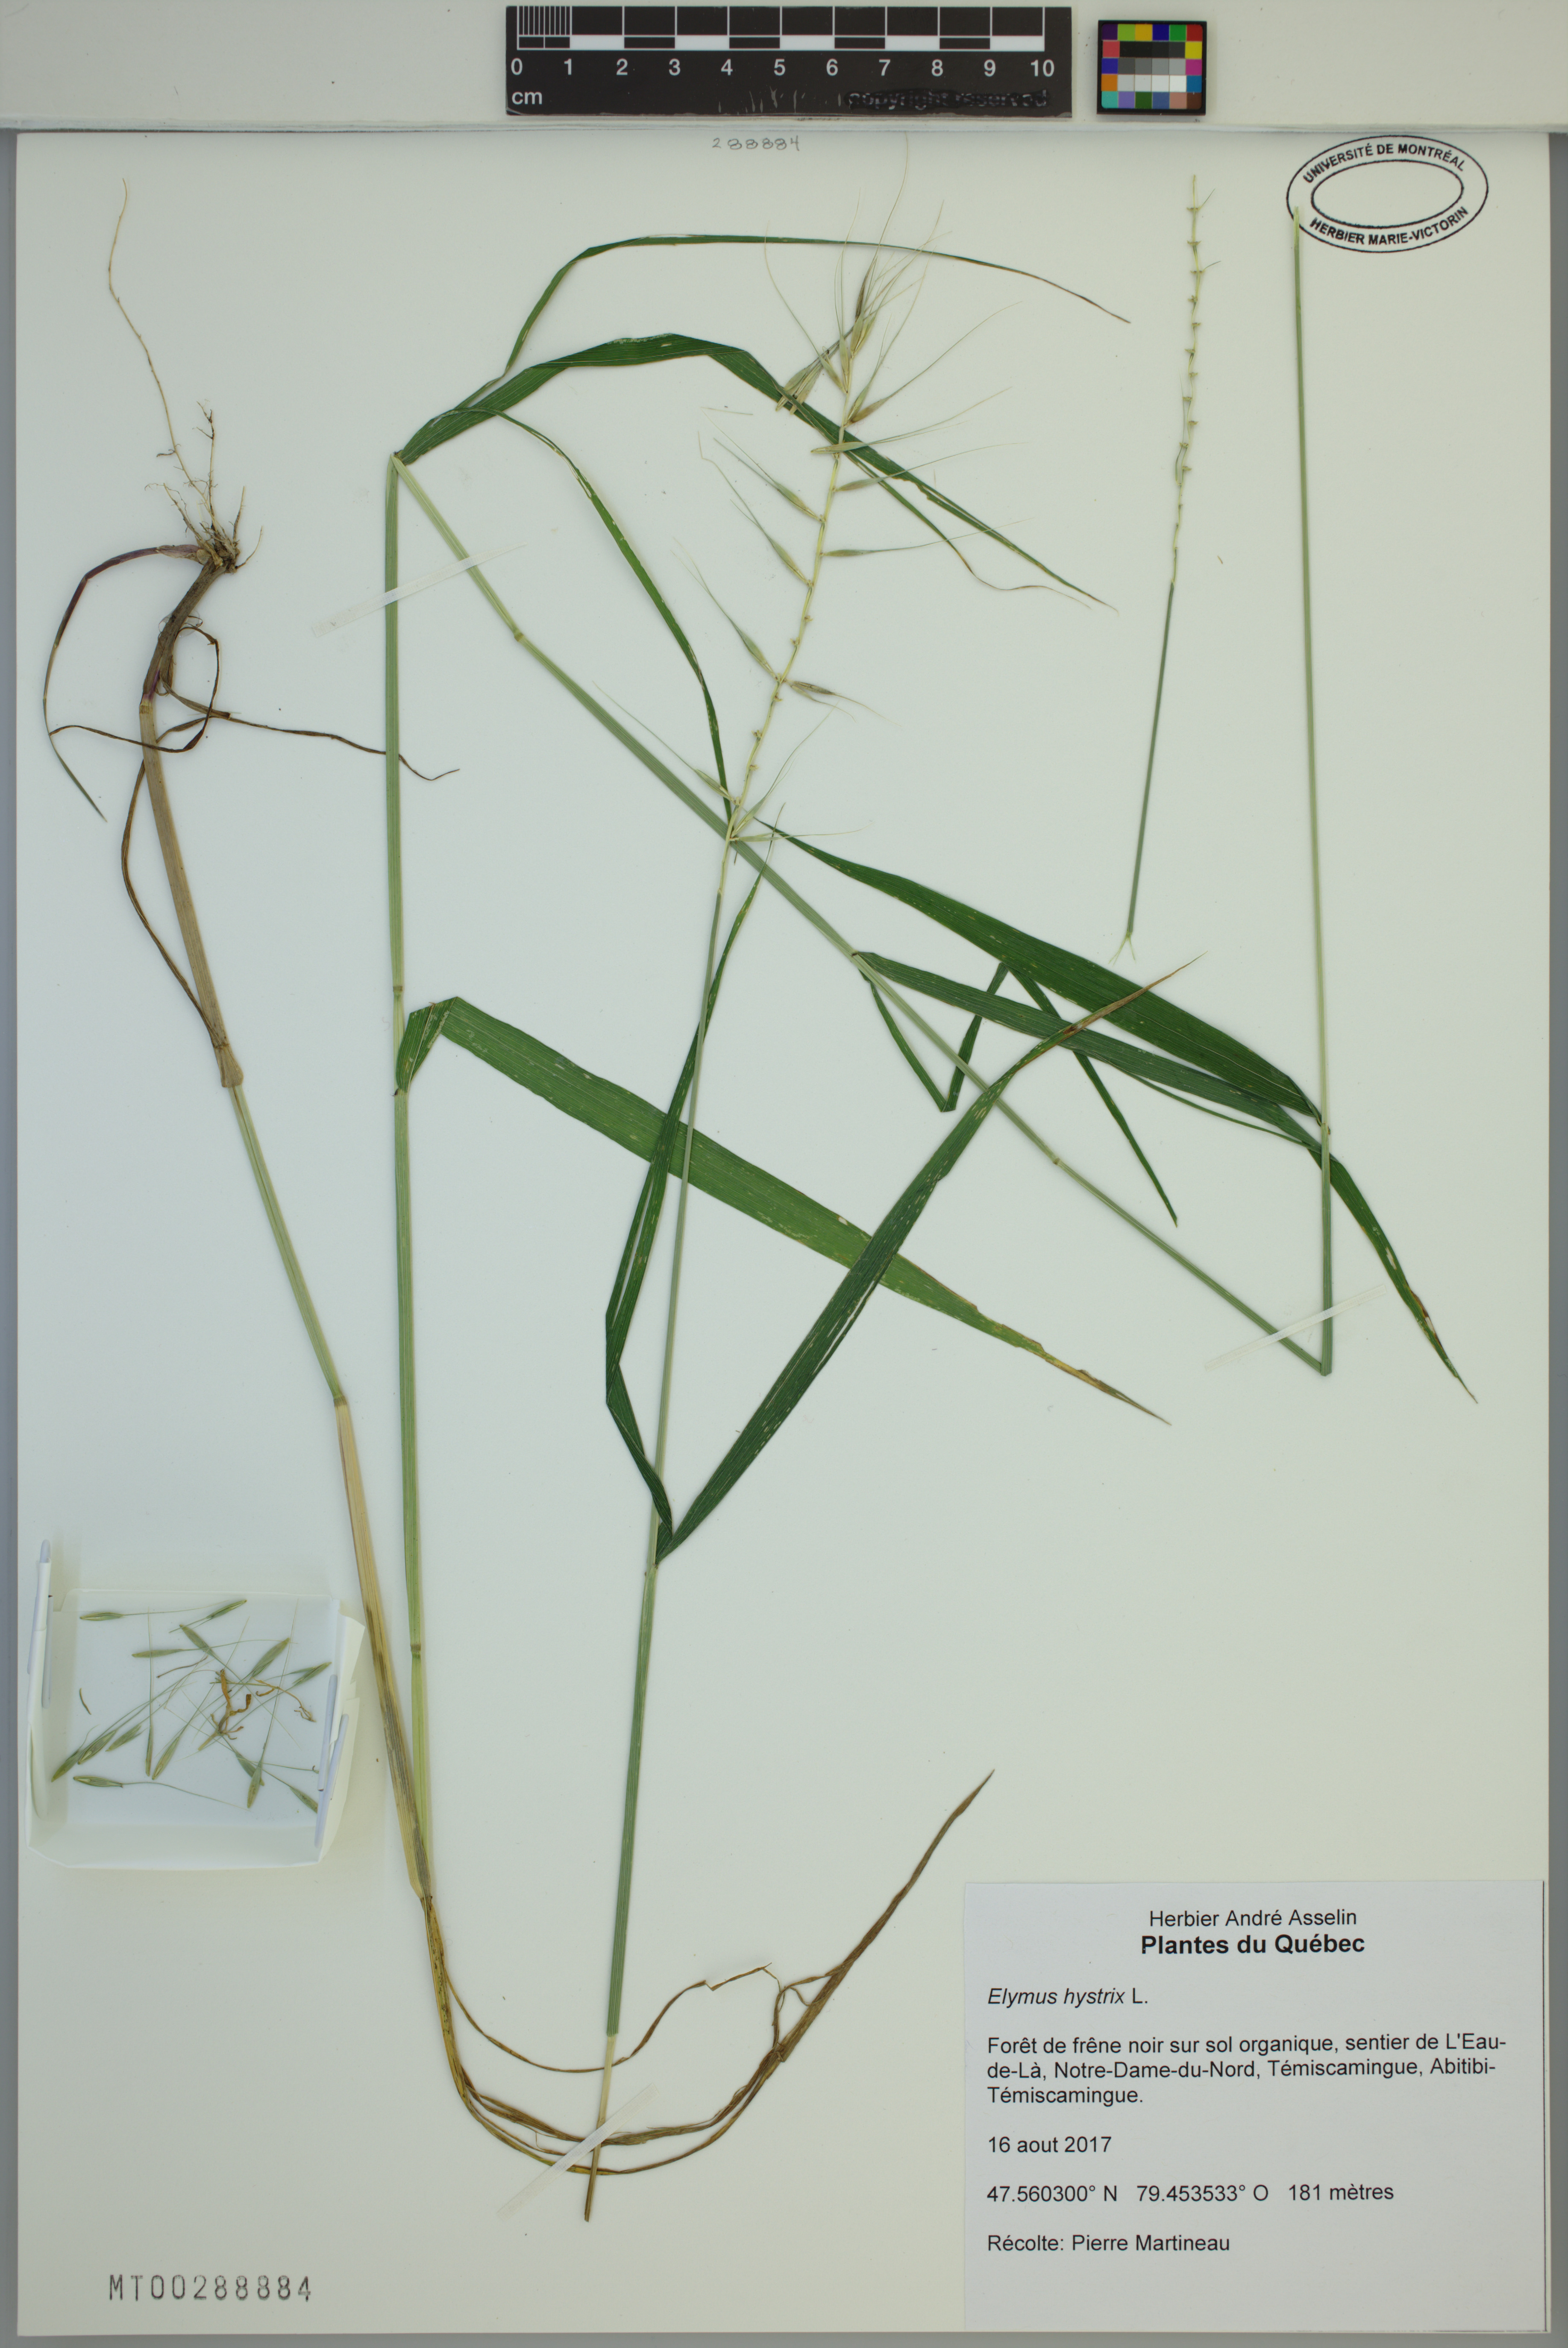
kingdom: Plantae
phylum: Tracheophyta
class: Liliopsida
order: Poales
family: Poaceae
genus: Elymus
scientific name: Elymus hystrix
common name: Bottlebrush grass
